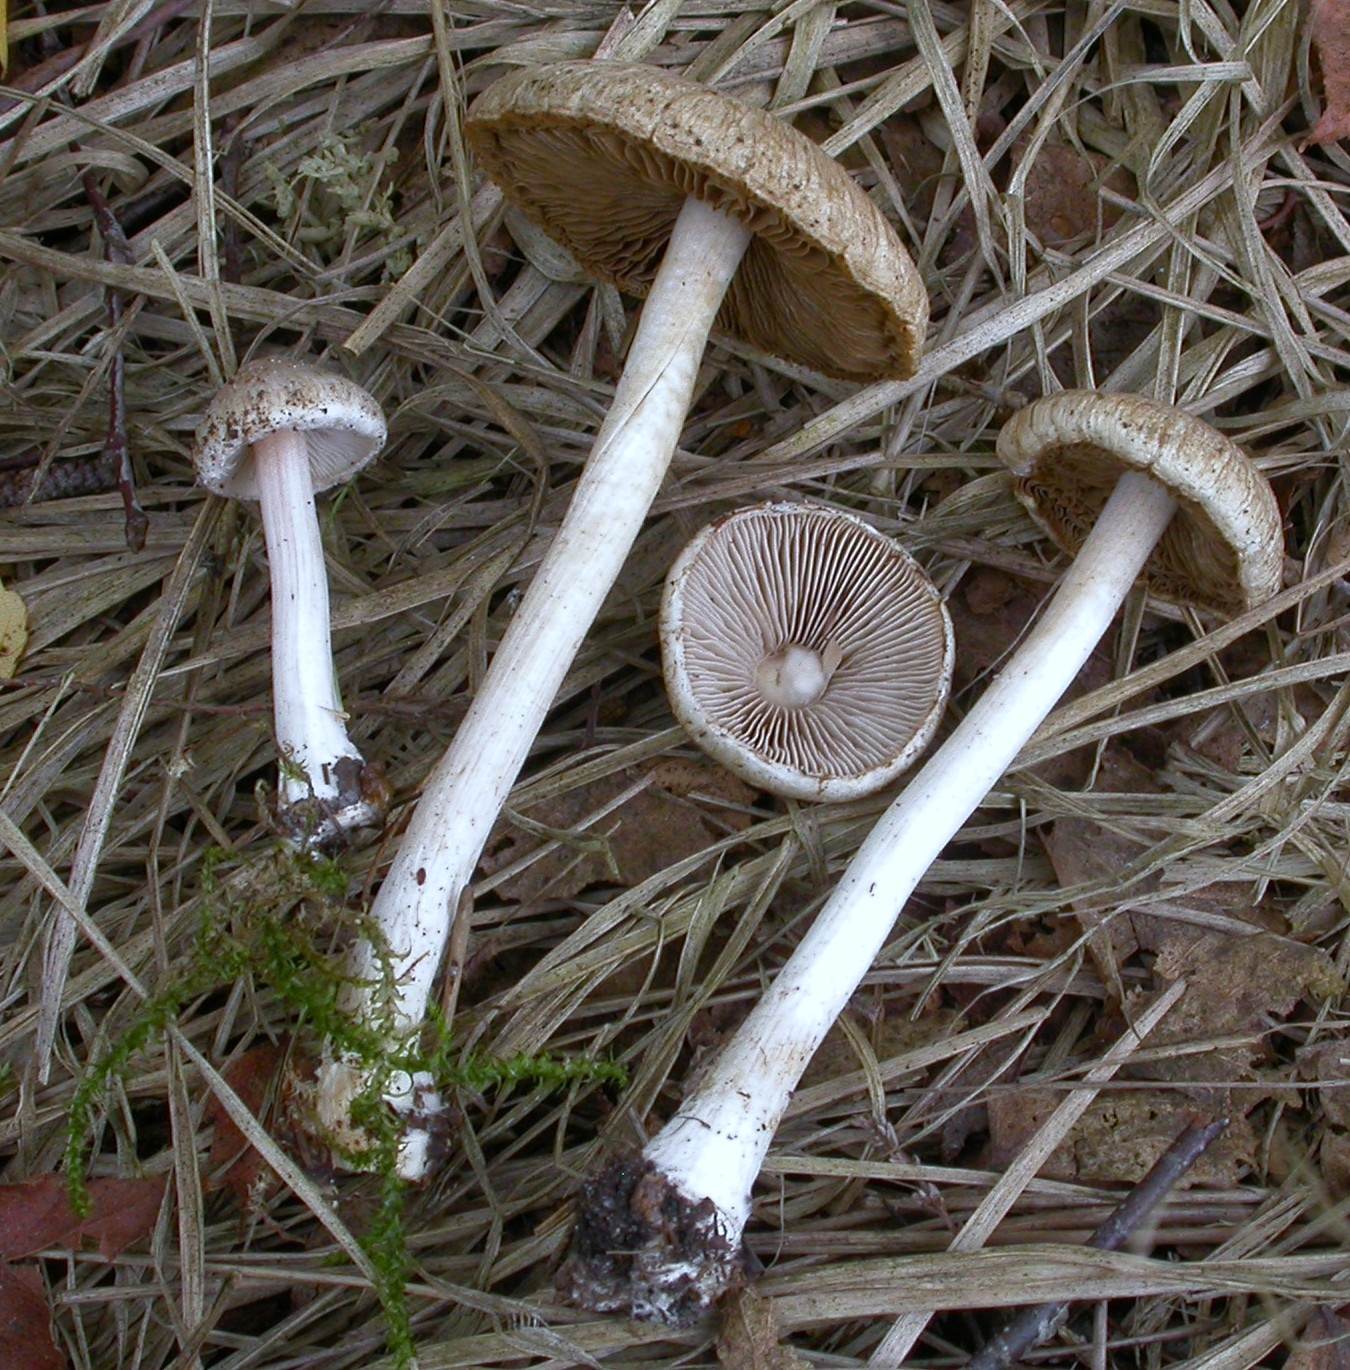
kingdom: Fungi
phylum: Basidiomycota
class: Agaricomycetes
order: Agaricales
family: Inocybaceae
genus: Inocybe
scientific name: Inocybe
